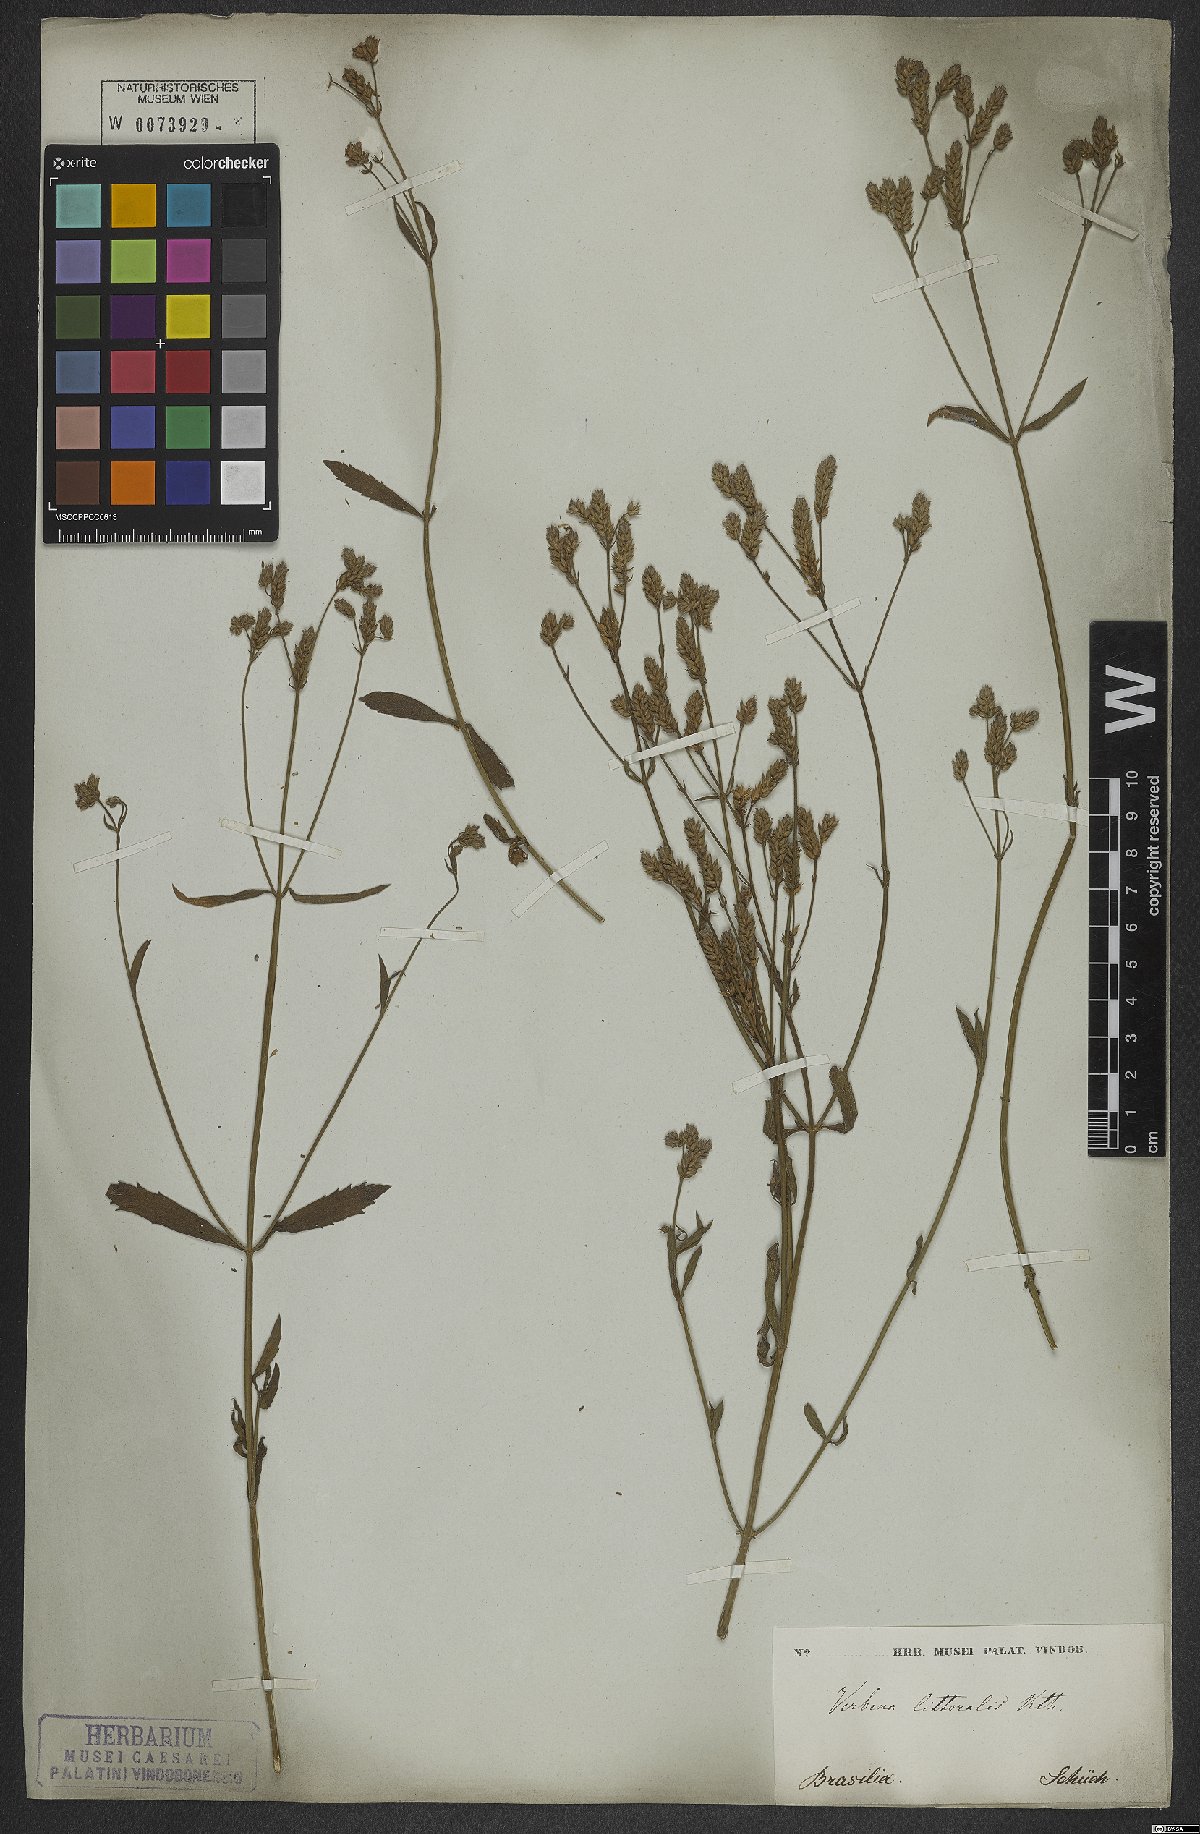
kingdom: Plantae
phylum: Tracheophyta
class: Magnoliopsida
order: Lamiales
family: Verbenaceae
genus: Verbena
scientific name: Verbena litoralis
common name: Seashore vervain
